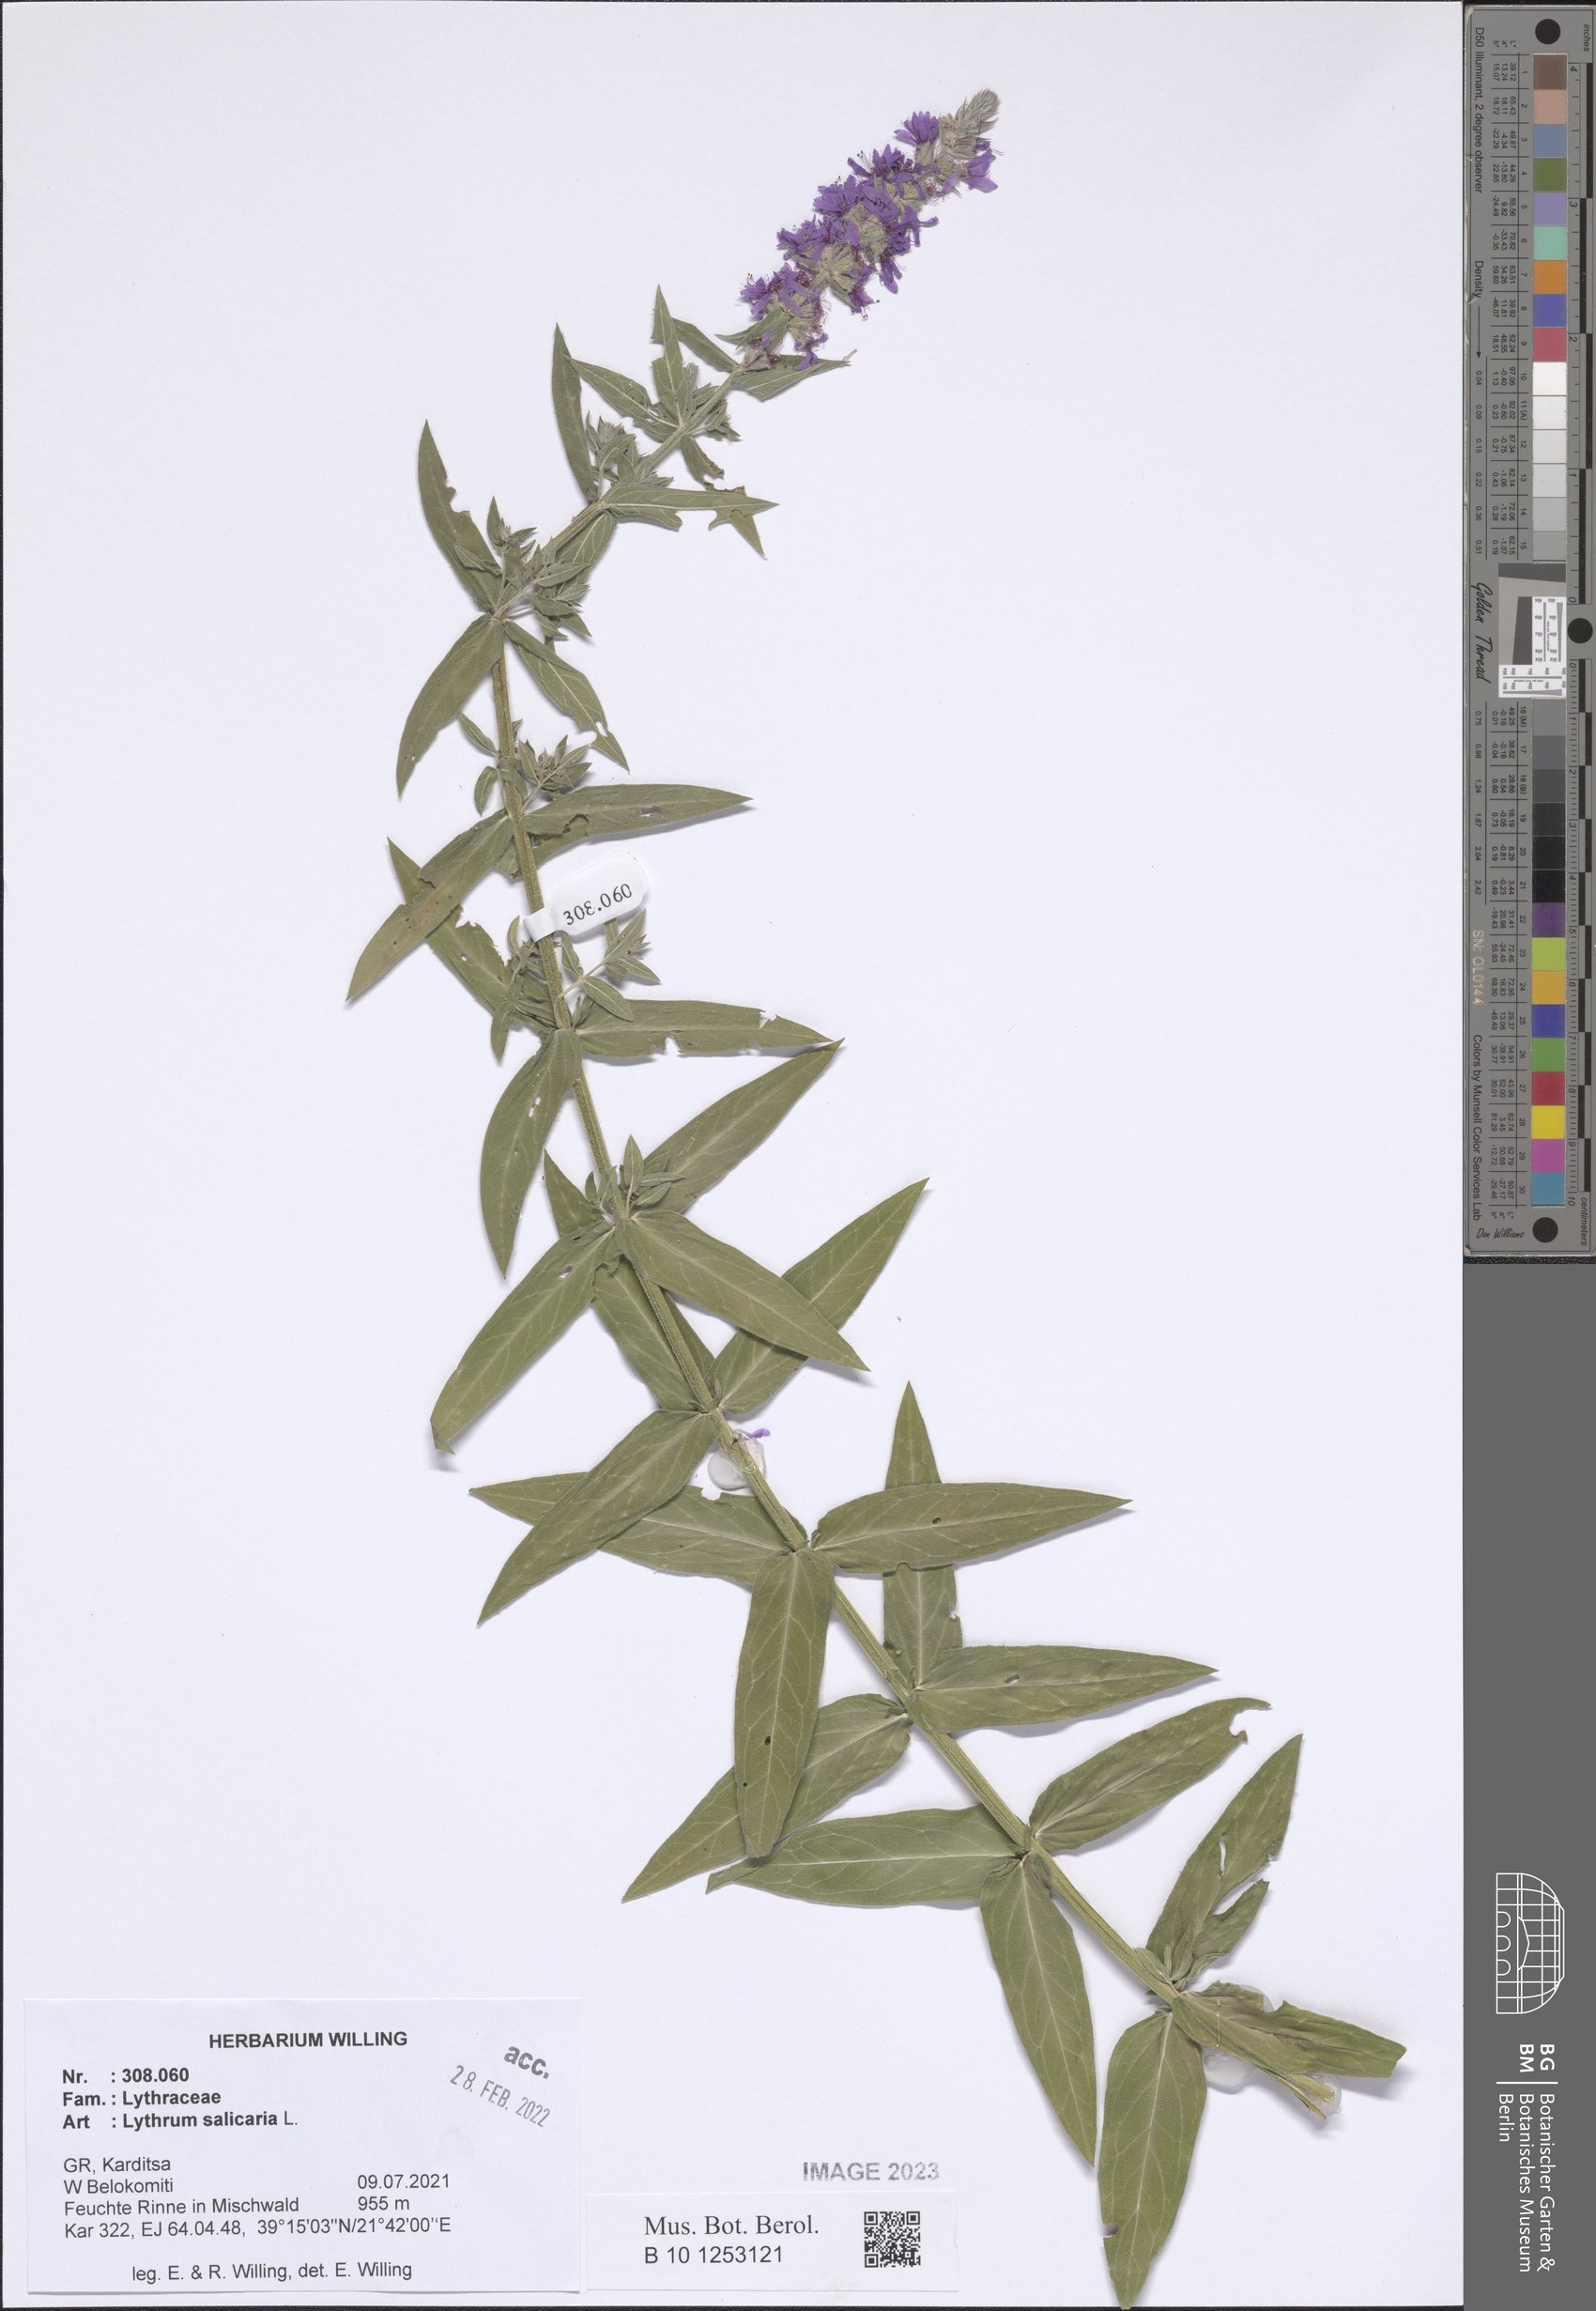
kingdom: Plantae
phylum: Tracheophyta
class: Magnoliopsida
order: Myrtales
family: Lythraceae
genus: Lythrum
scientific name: Lythrum salicaria
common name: Purple loosestrife
